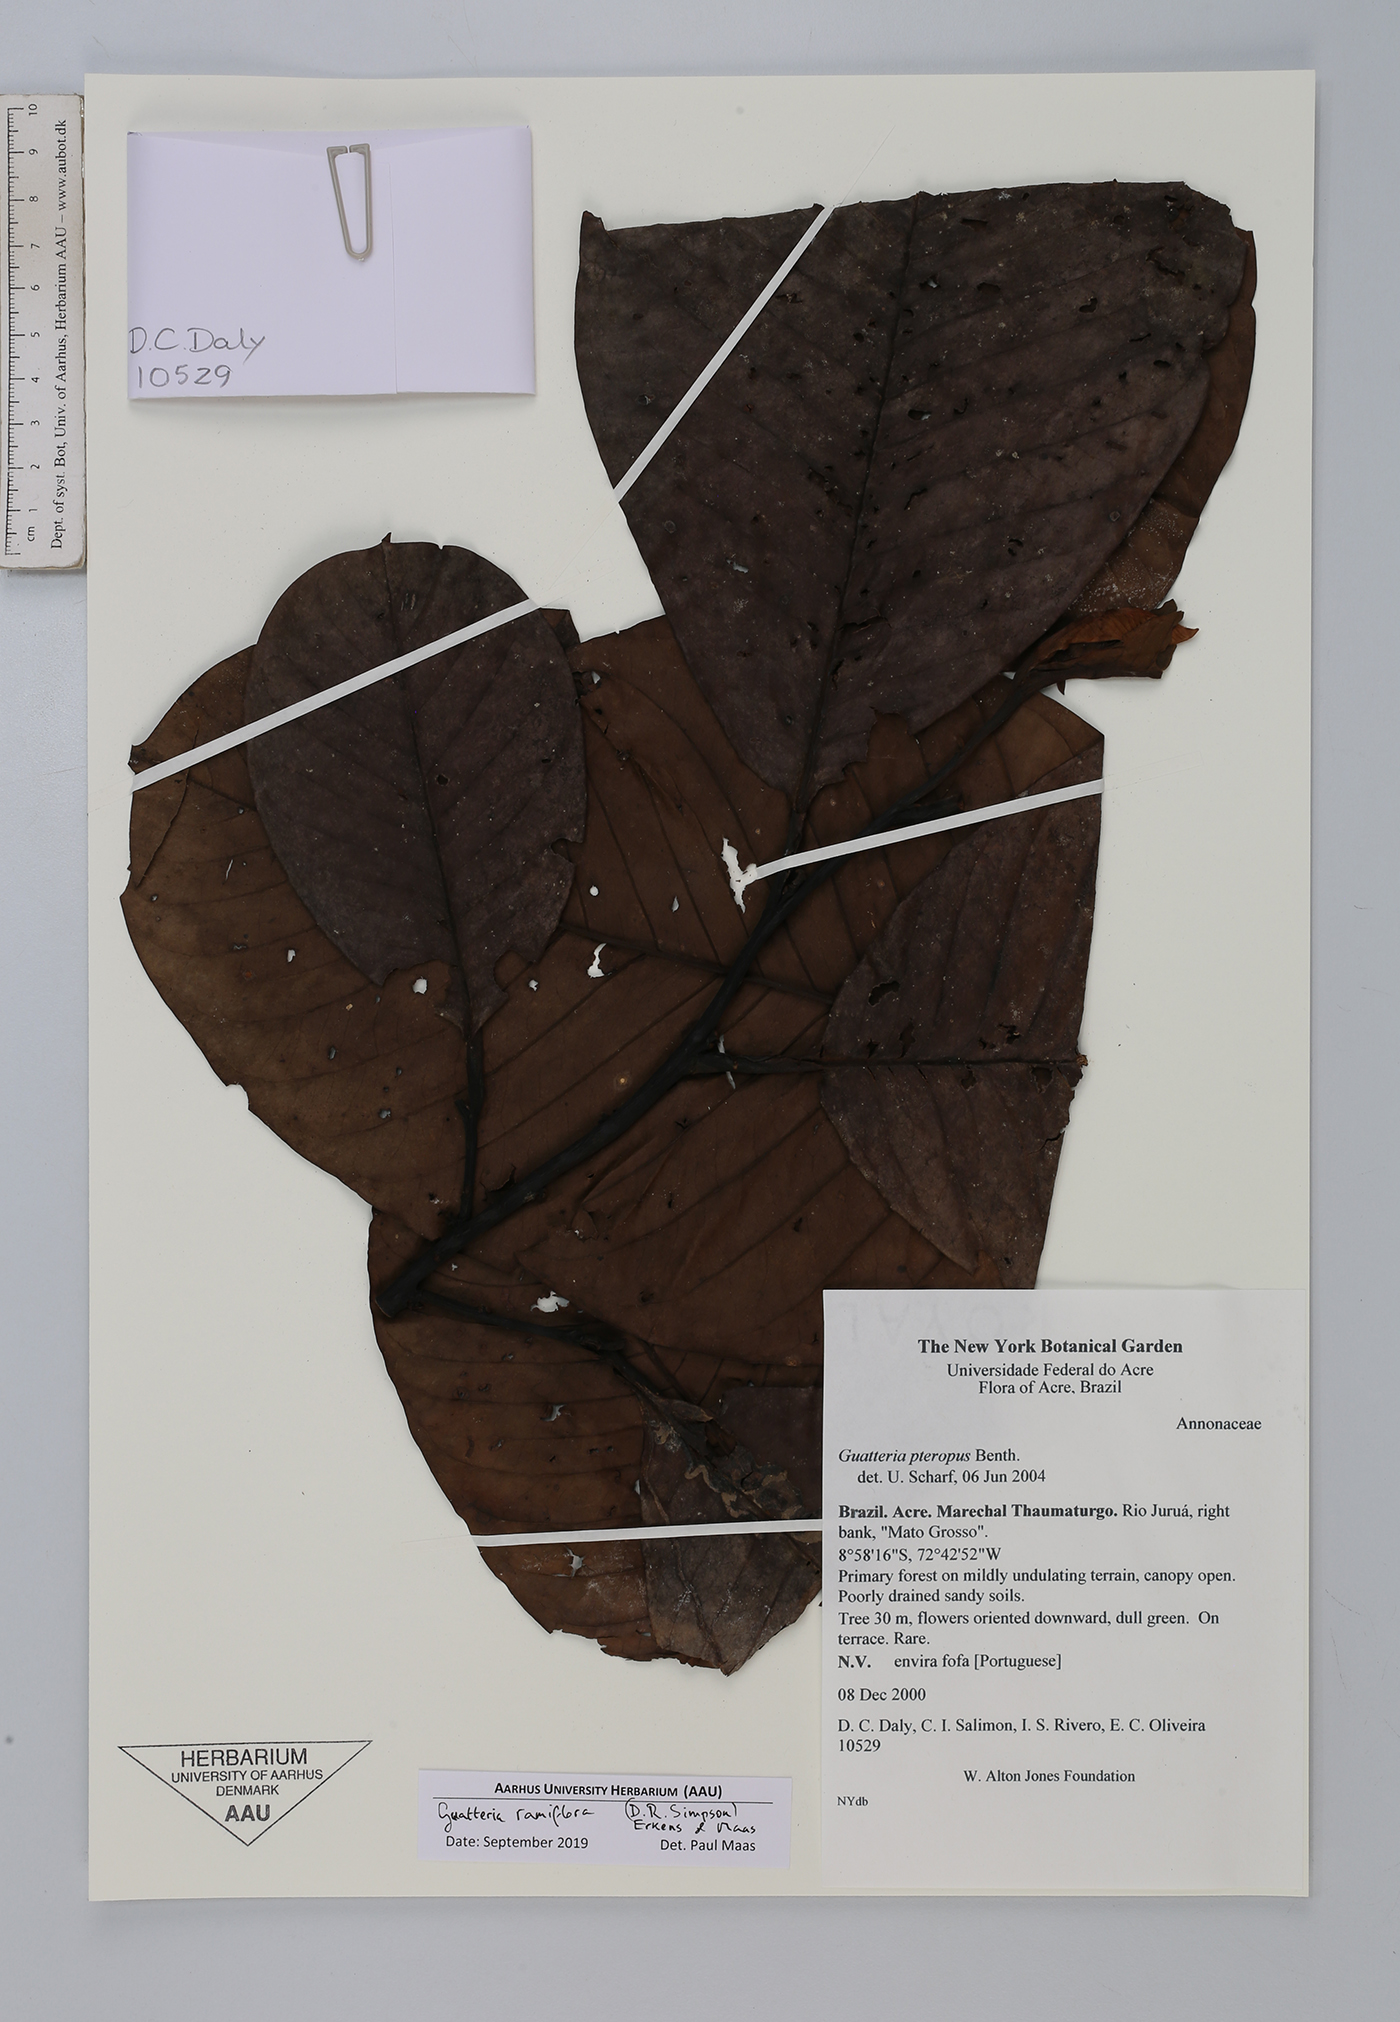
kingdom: Plantae
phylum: Tracheophyta
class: Magnoliopsida
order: Magnoliales
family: Annonaceae
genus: Guatteria
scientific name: Guatteria ramiflora
